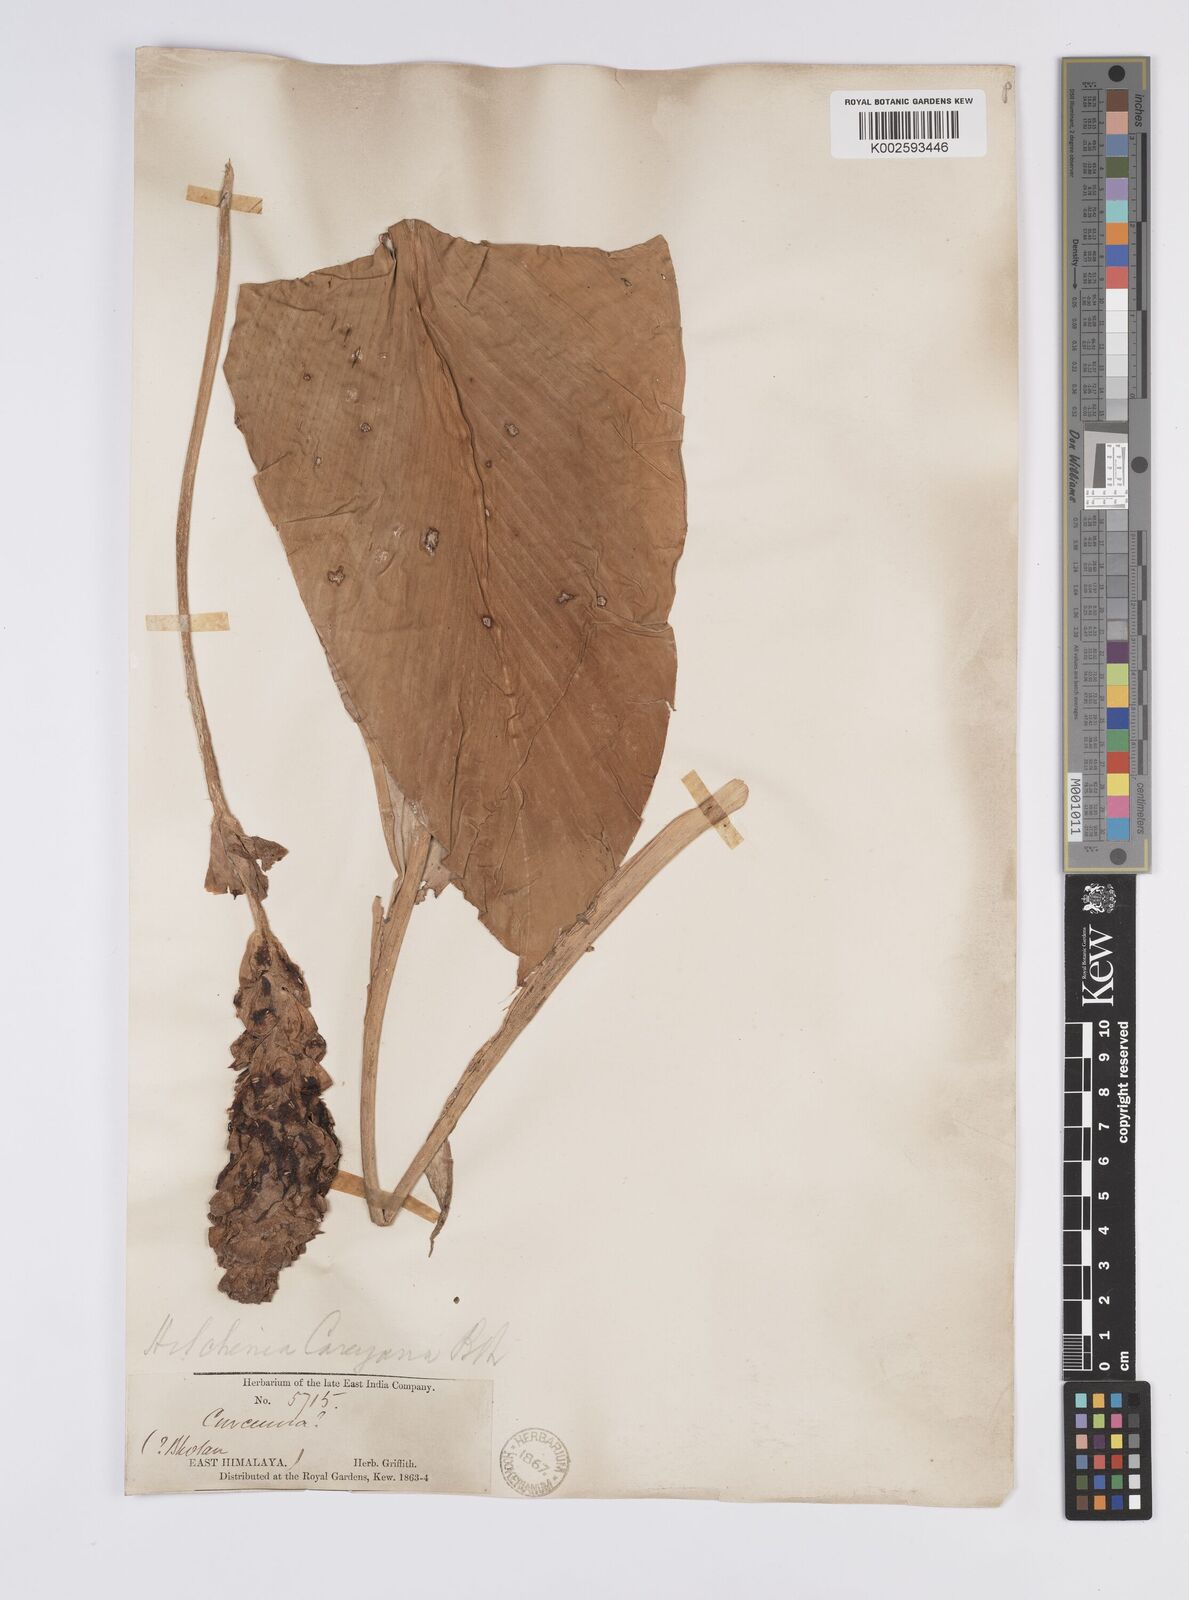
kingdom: Plantae
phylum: Tracheophyta
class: Liliopsida
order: Zingiberales
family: Zingiberaceae
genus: Larsenianthus
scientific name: Larsenianthus careyanus
